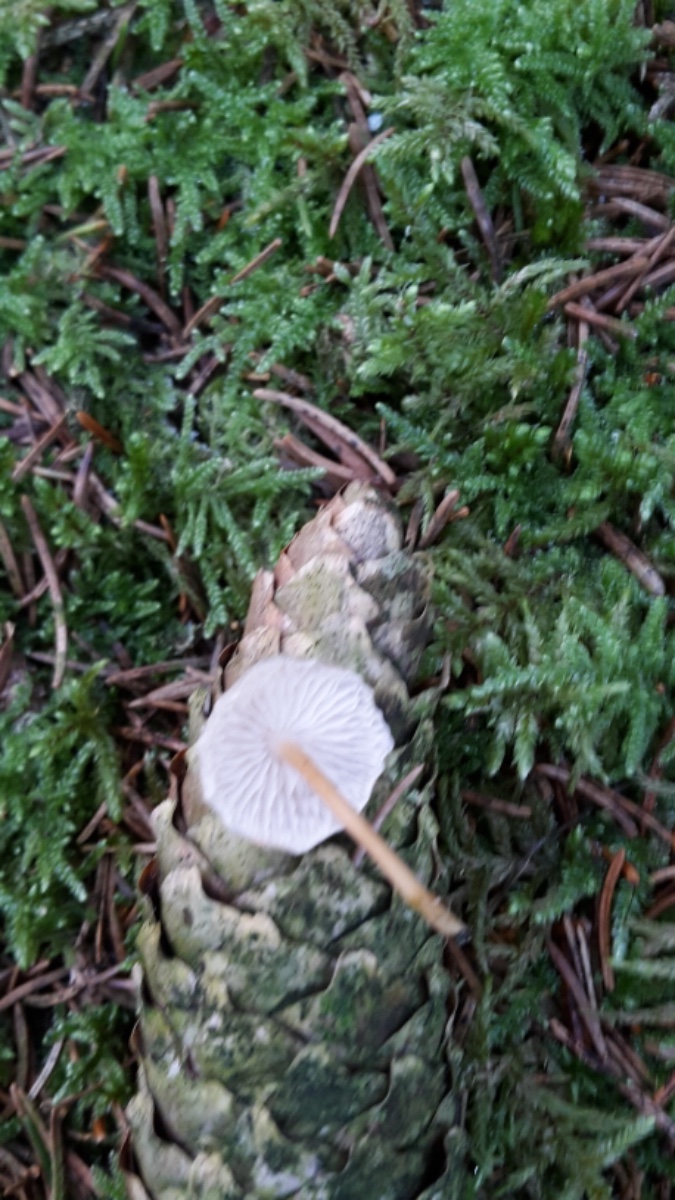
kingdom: Fungi
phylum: Basidiomycota
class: Agaricomycetes
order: Agaricales
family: Physalacriaceae
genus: Strobilurus
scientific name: Strobilurus esculentus
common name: gran-koglehat
